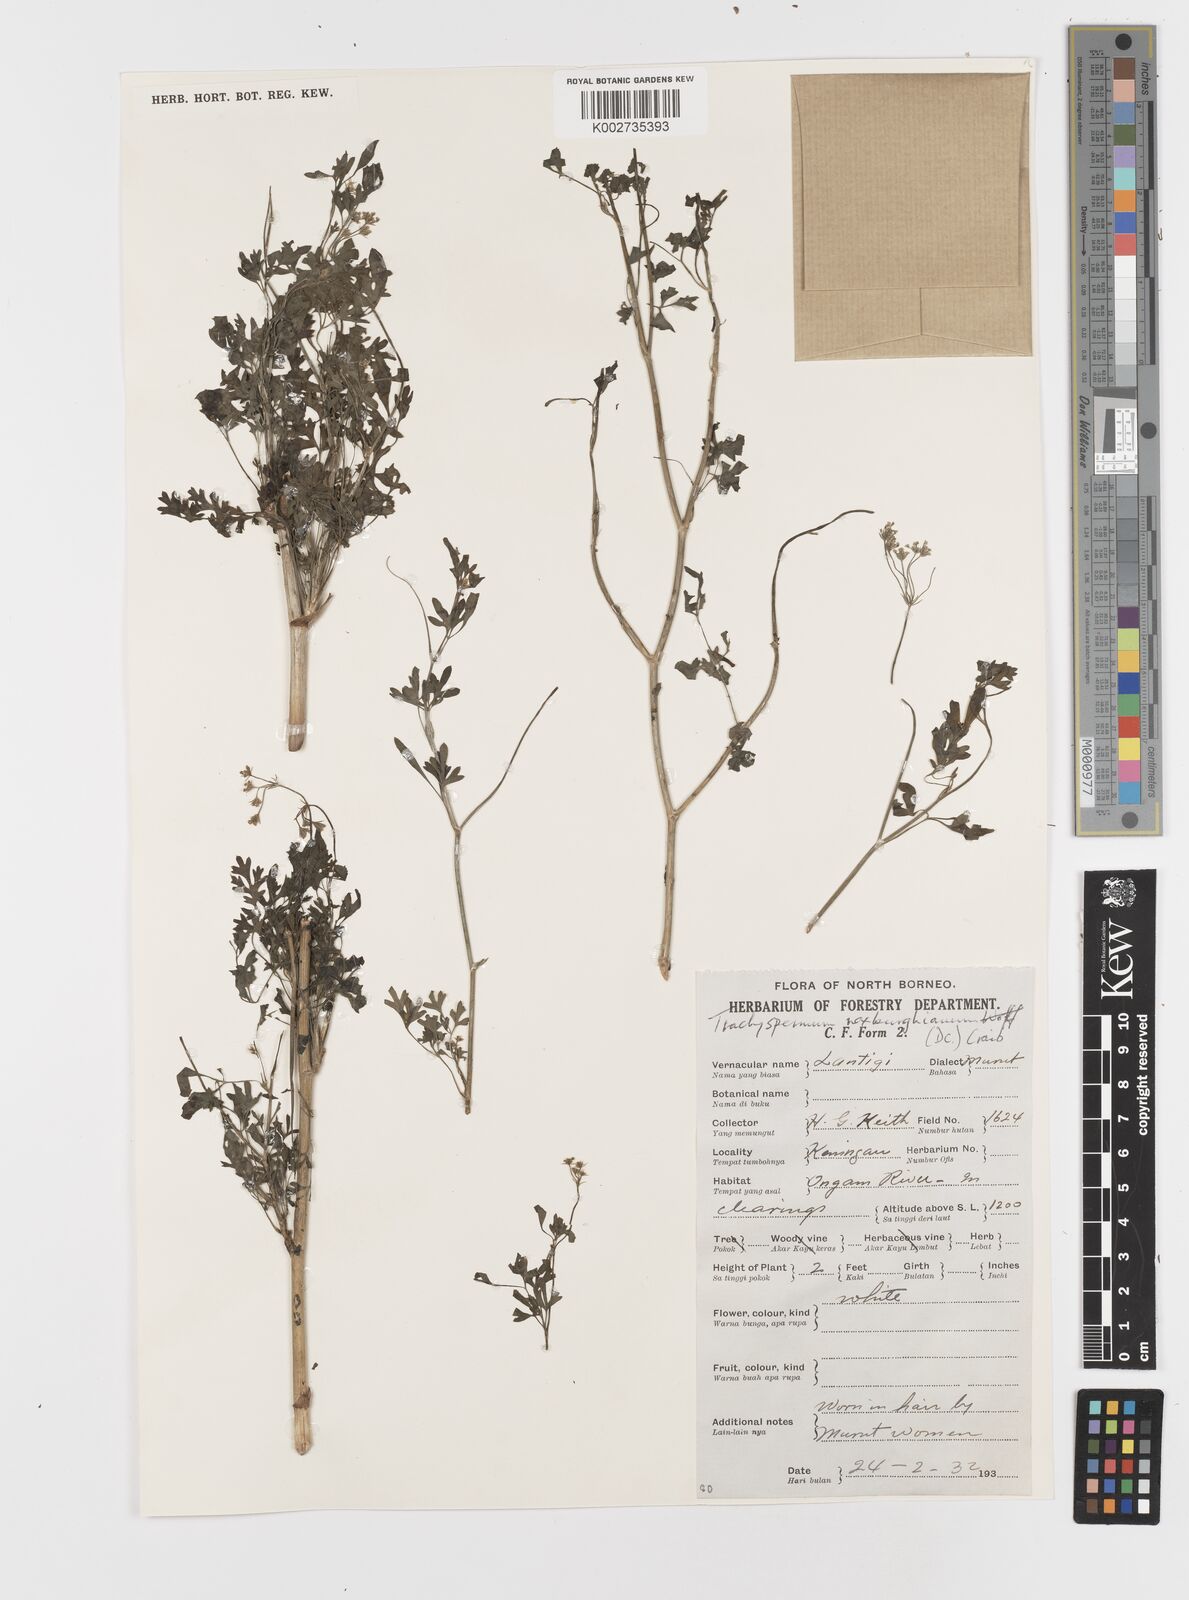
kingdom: Plantae
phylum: Tracheophyta
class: Magnoliopsida
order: Apiales
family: Apiaceae
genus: Psammogeton
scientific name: Psammogeton involucratum
